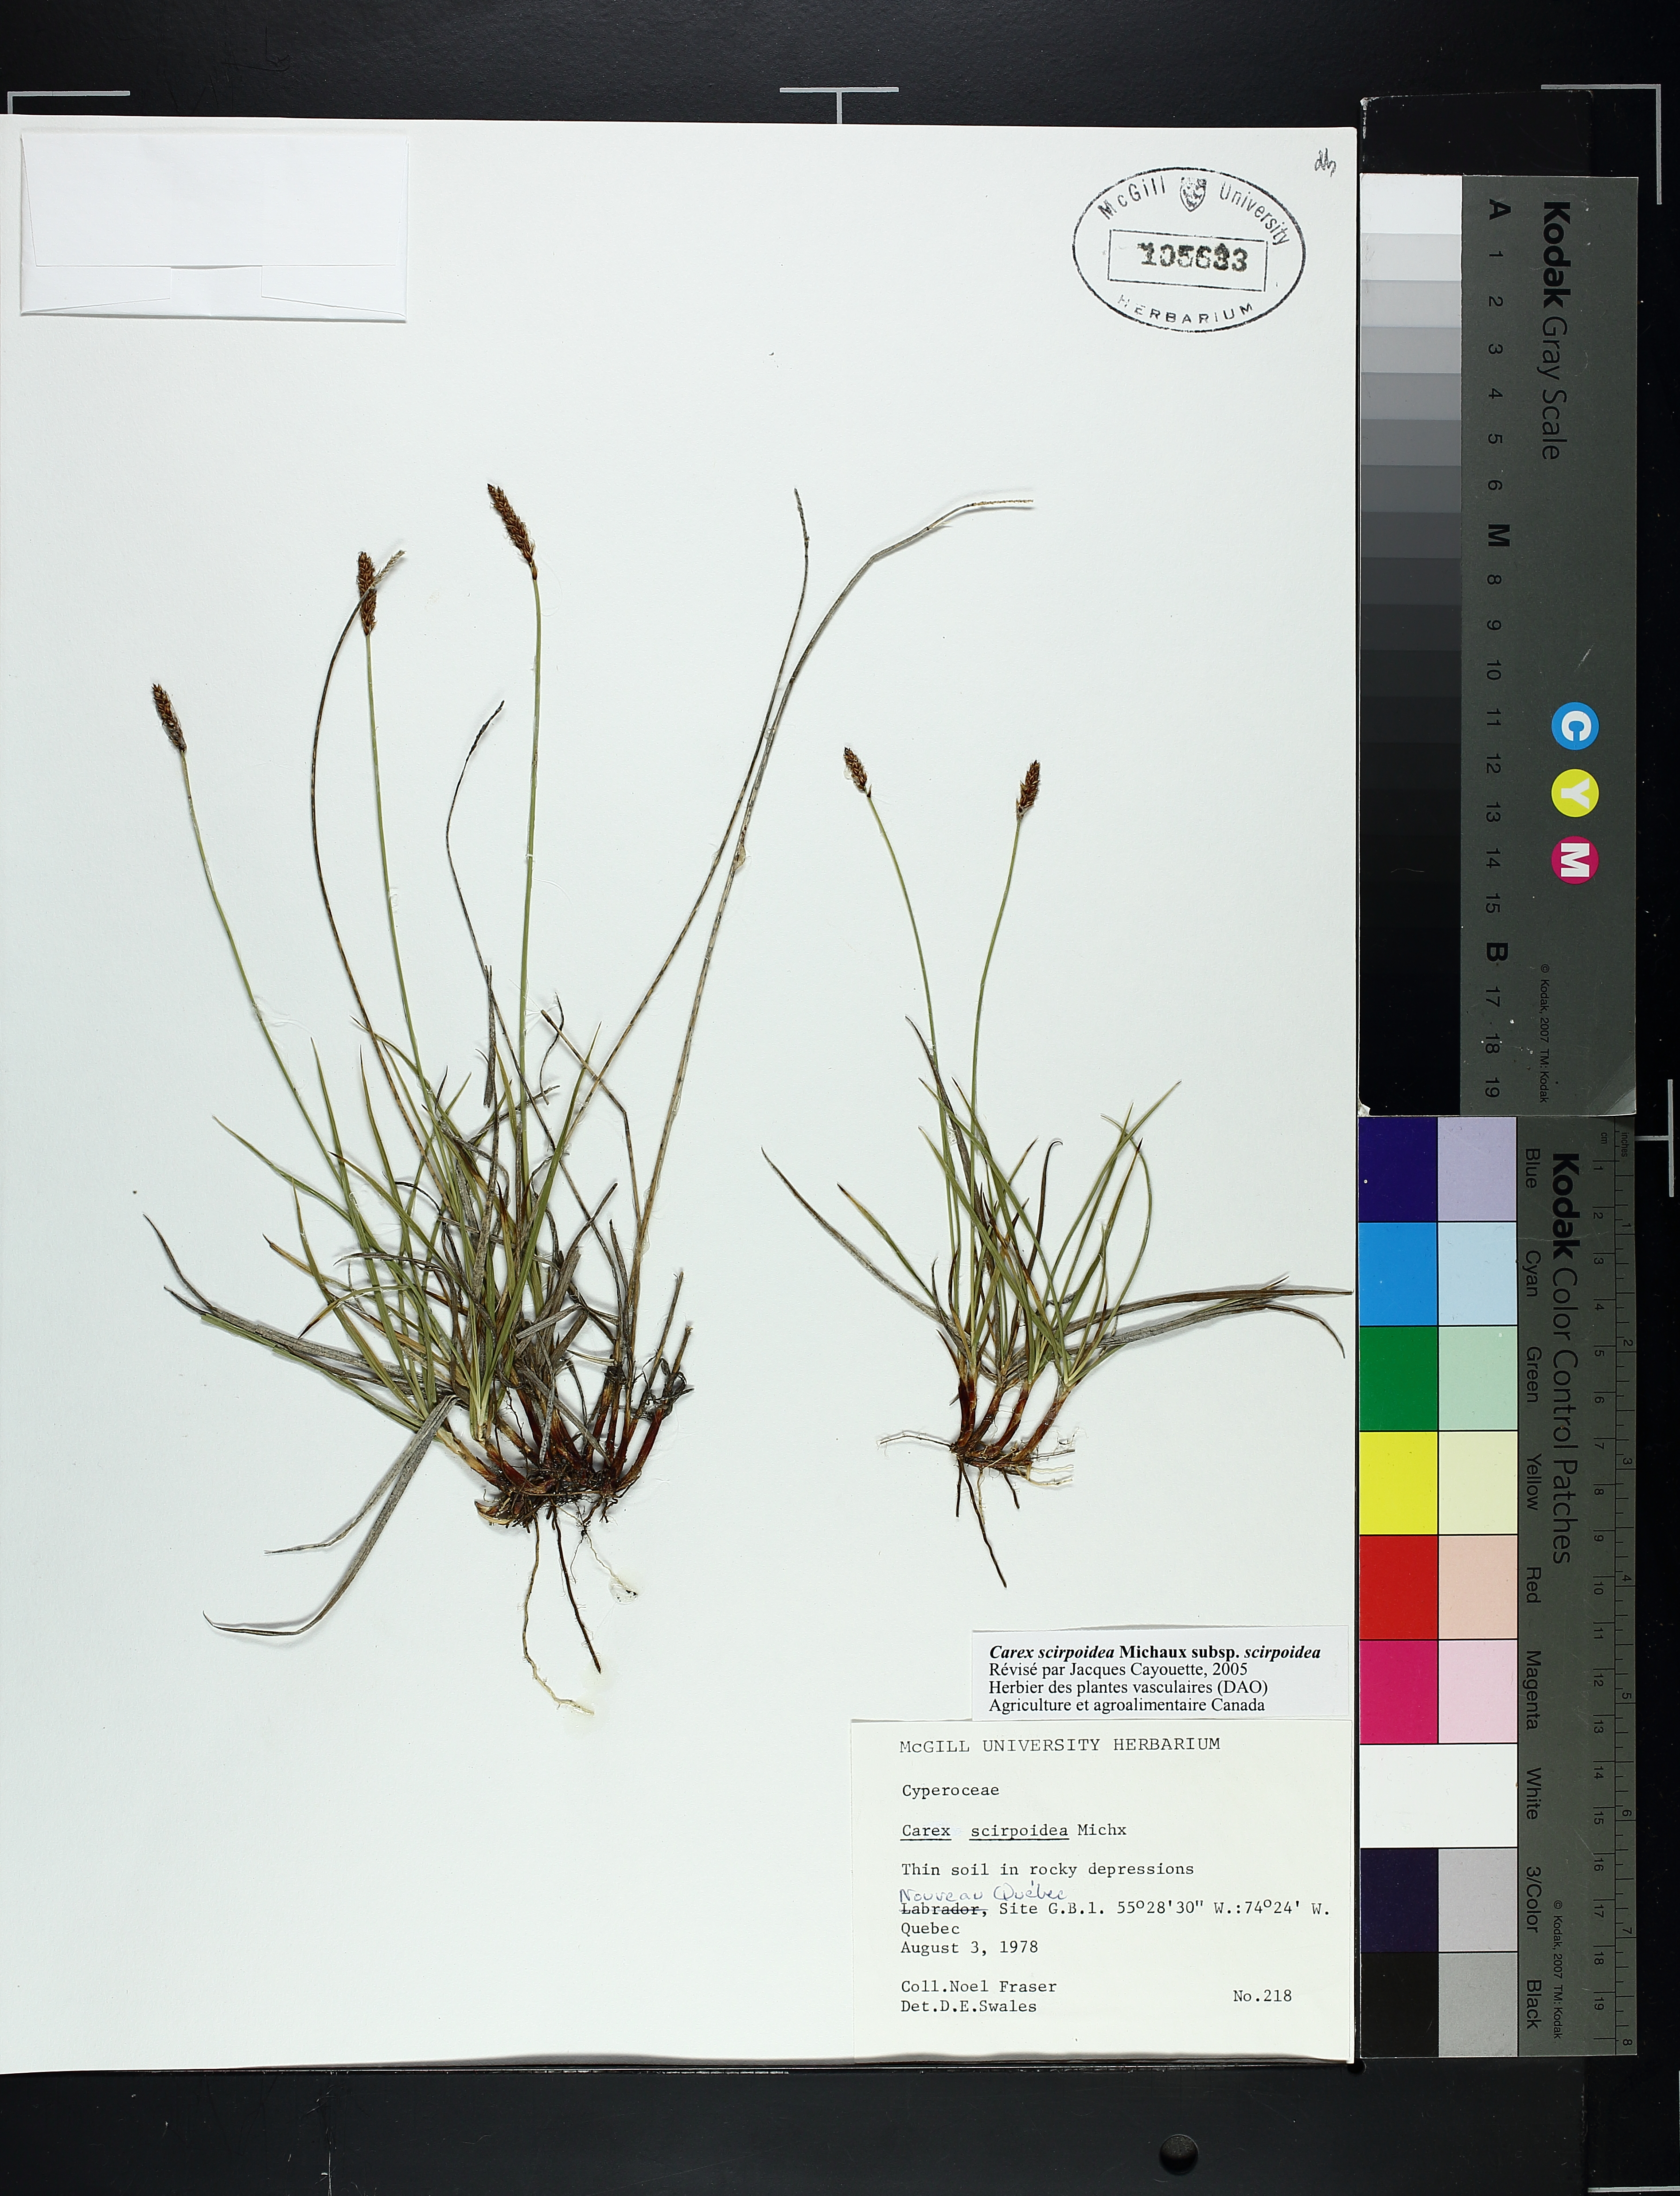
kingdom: Plantae
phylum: Tracheophyta
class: Liliopsida
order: Poales
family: Cyperaceae
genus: Carex
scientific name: Carex scirpoidea
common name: Canada single-spike sedge
